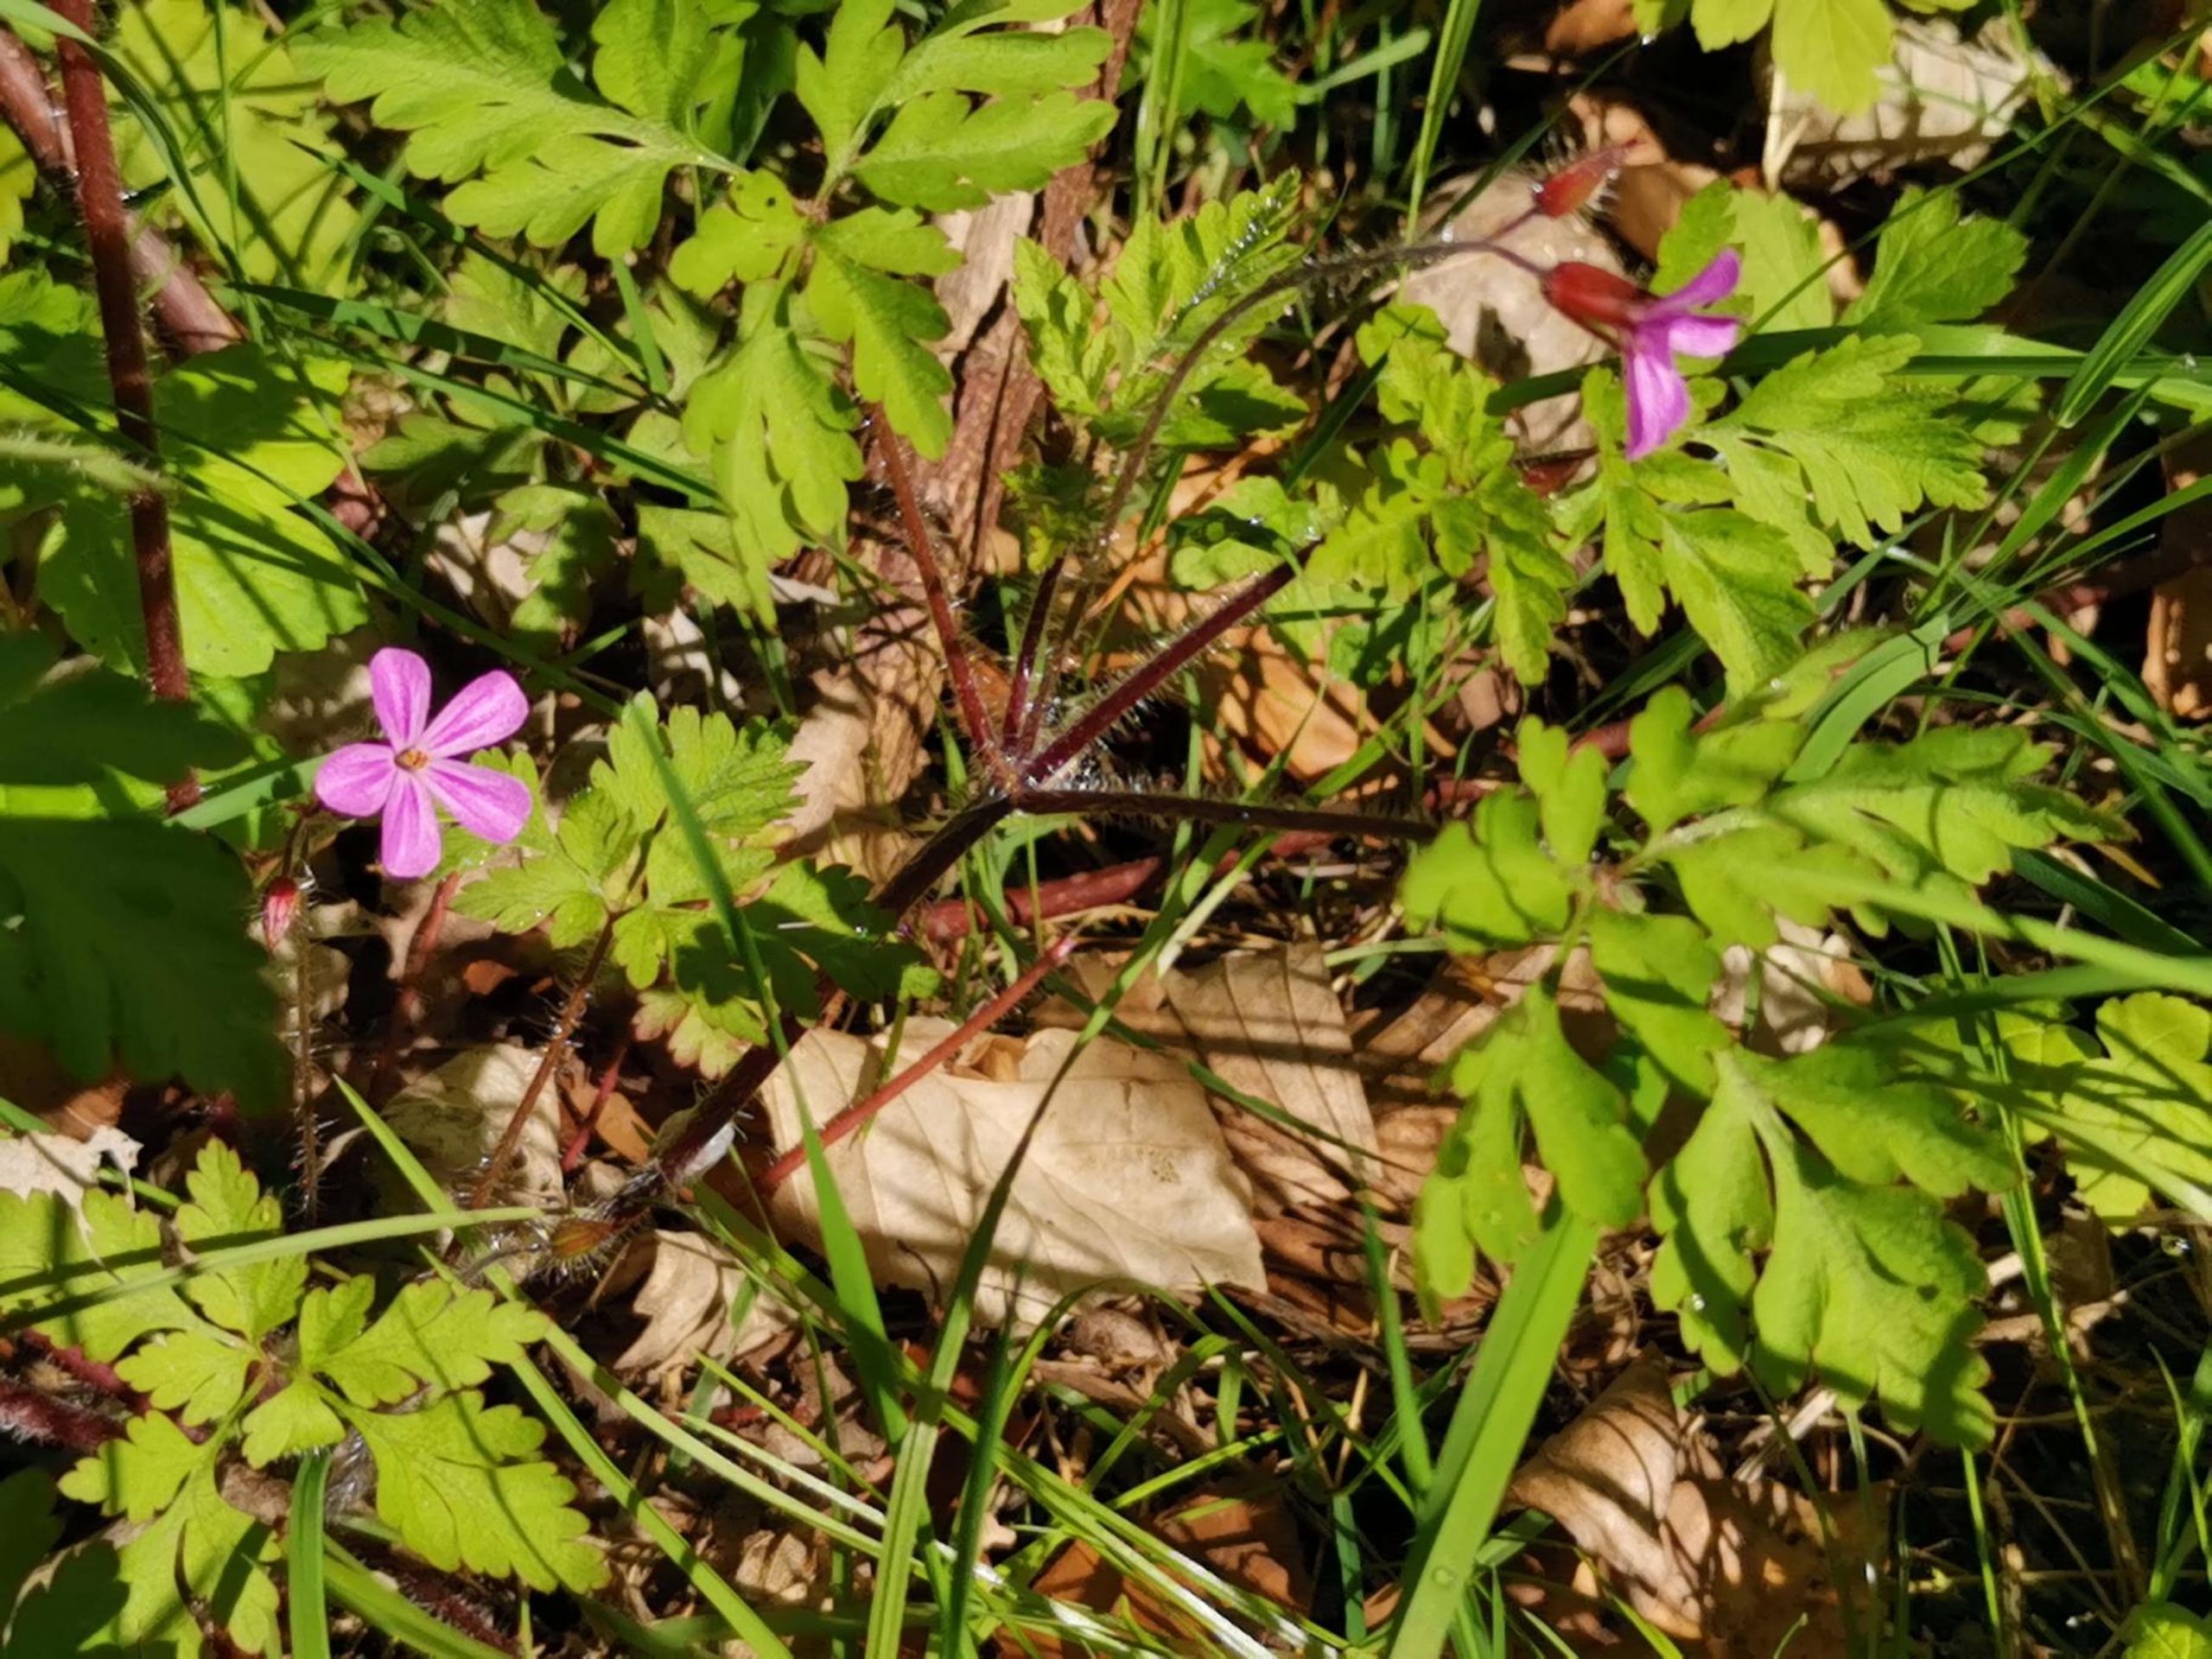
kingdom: Plantae
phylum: Tracheophyta
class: Magnoliopsida
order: Geraniales
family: Geraniaceae
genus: Geranium
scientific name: Geranium robertianum
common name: Stinkende storkenæb
